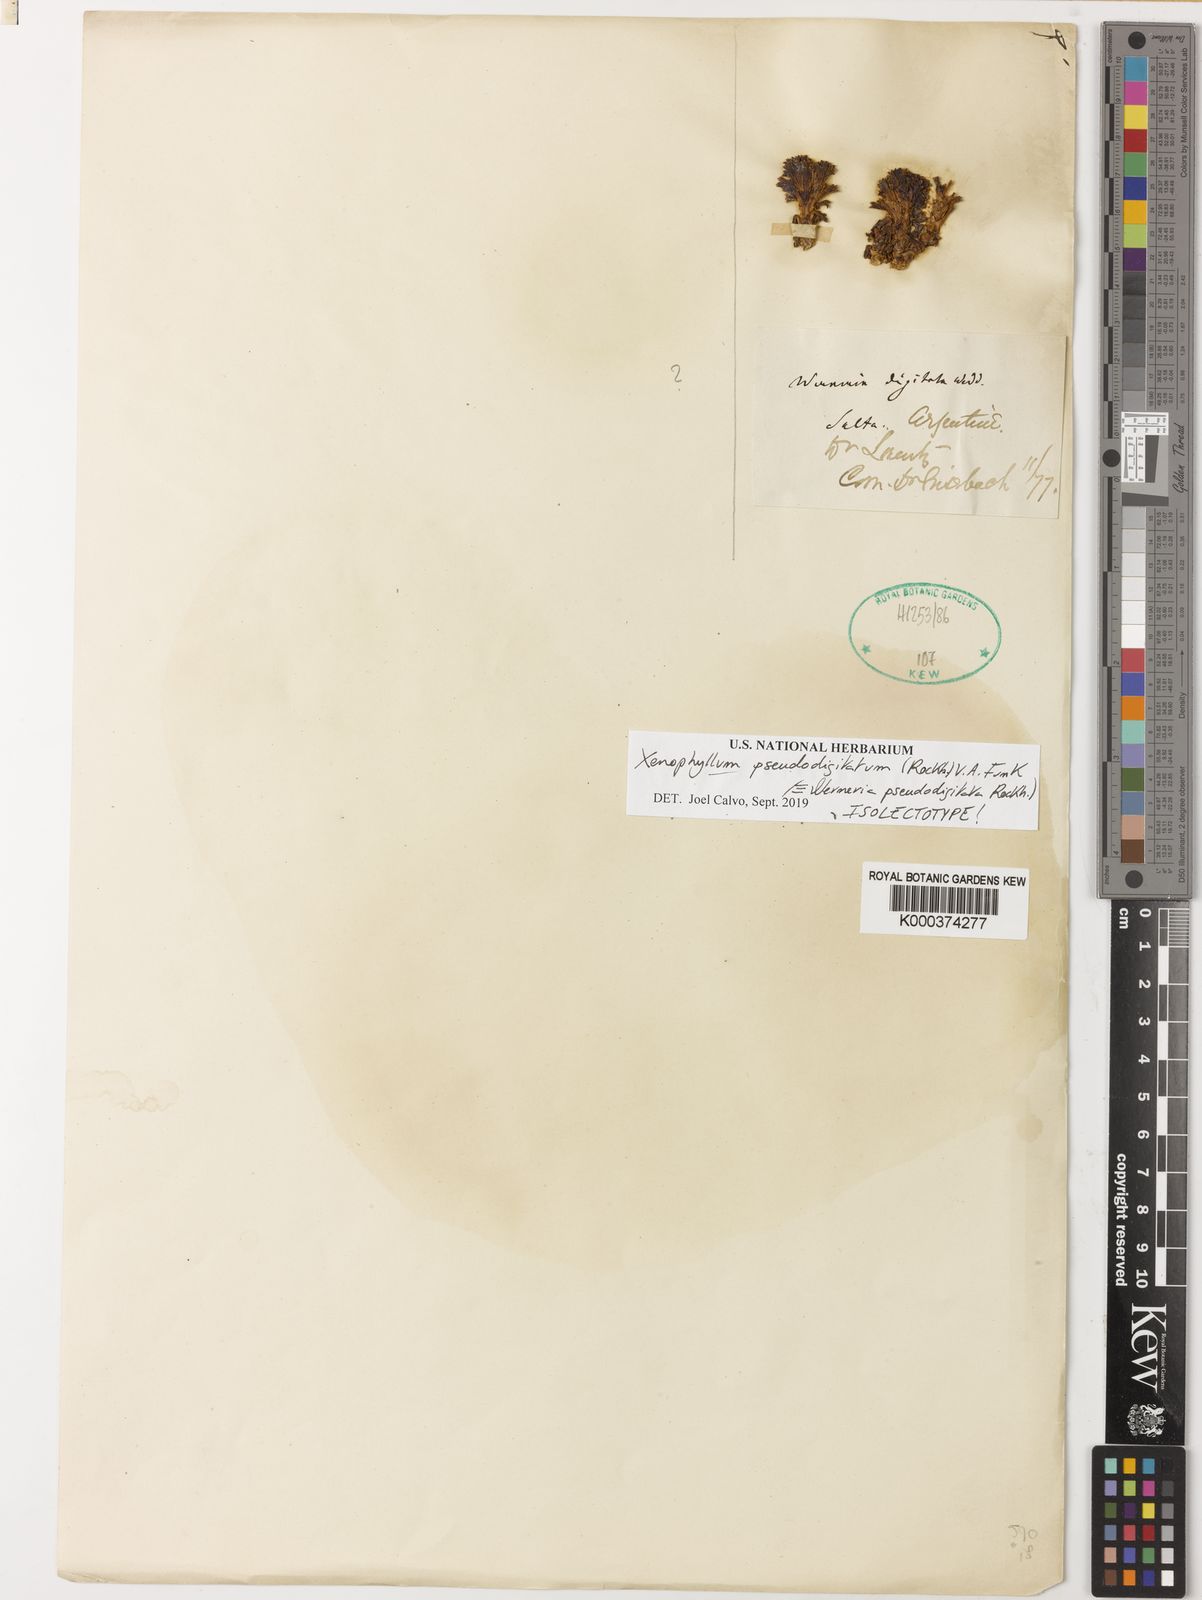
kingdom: Plantae
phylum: Tracheophyta
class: Magnoliopsida
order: Asterales
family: Asteraceae
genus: Werneria
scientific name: Werneria pseudodigitata
